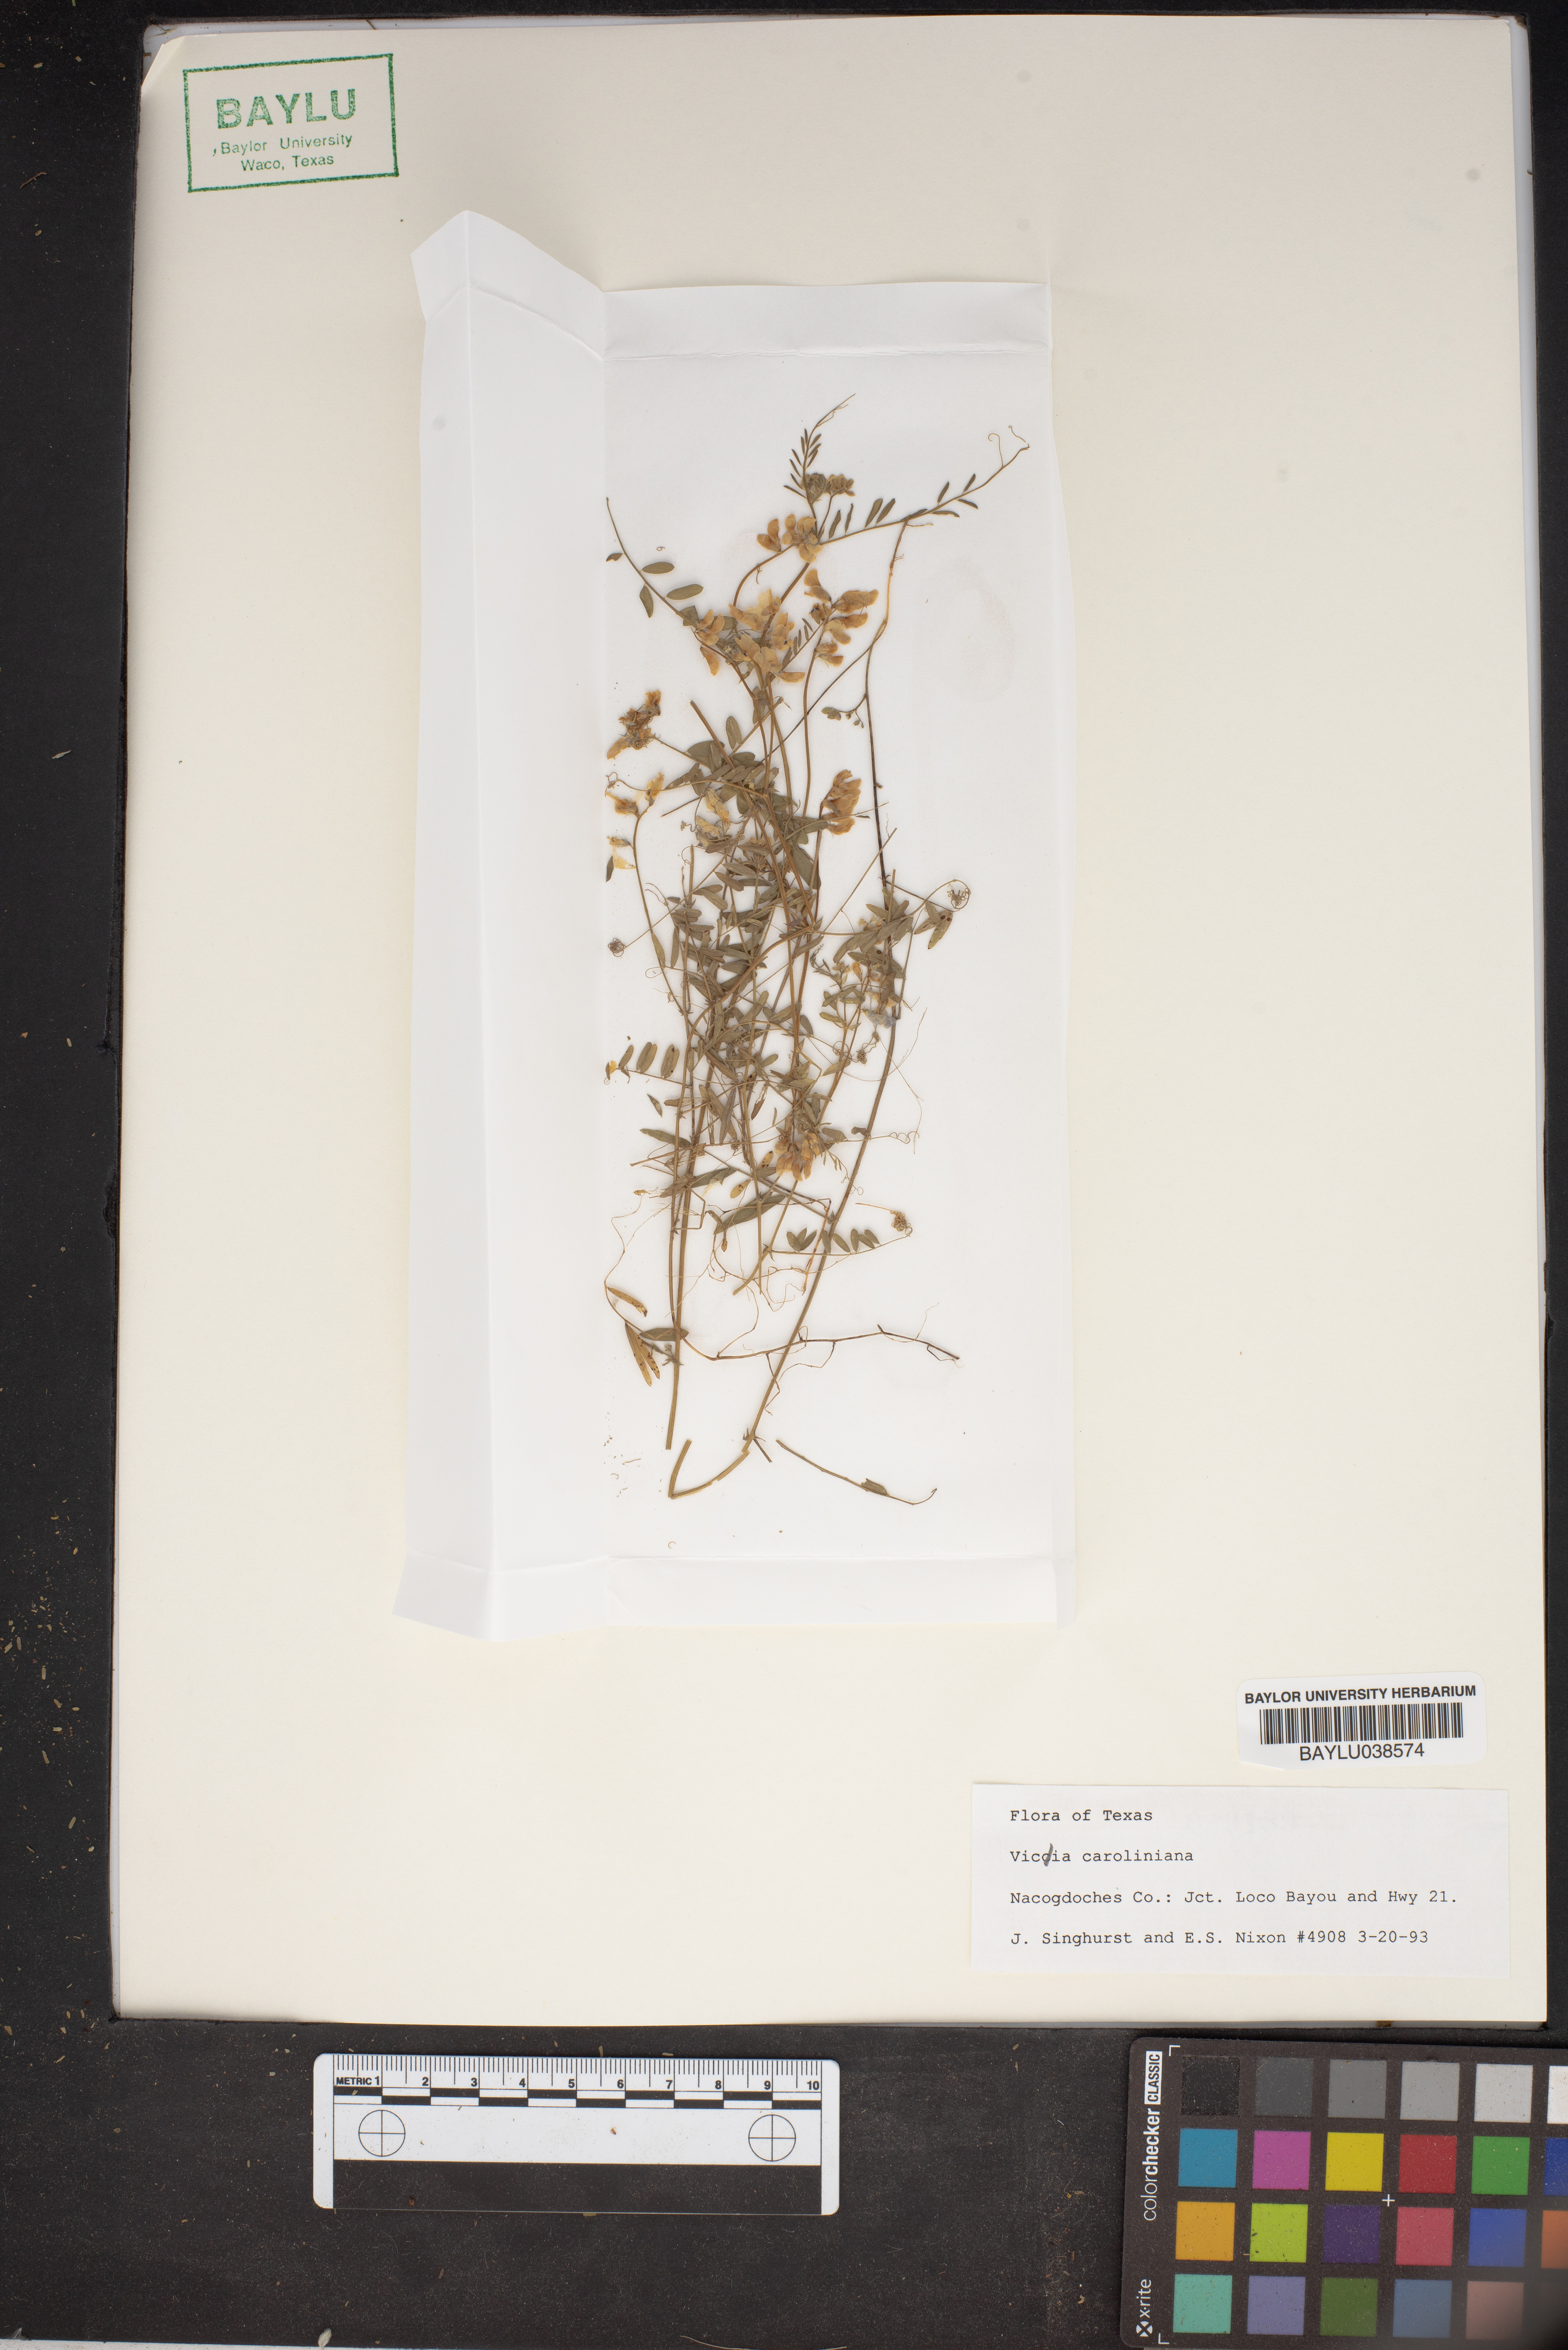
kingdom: Plantae
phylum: Tracheophyta
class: Magnoliopsida
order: Fabales
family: Fabaceae
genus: Vicia
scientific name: Vicia caroliniana
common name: Carolina vetch
